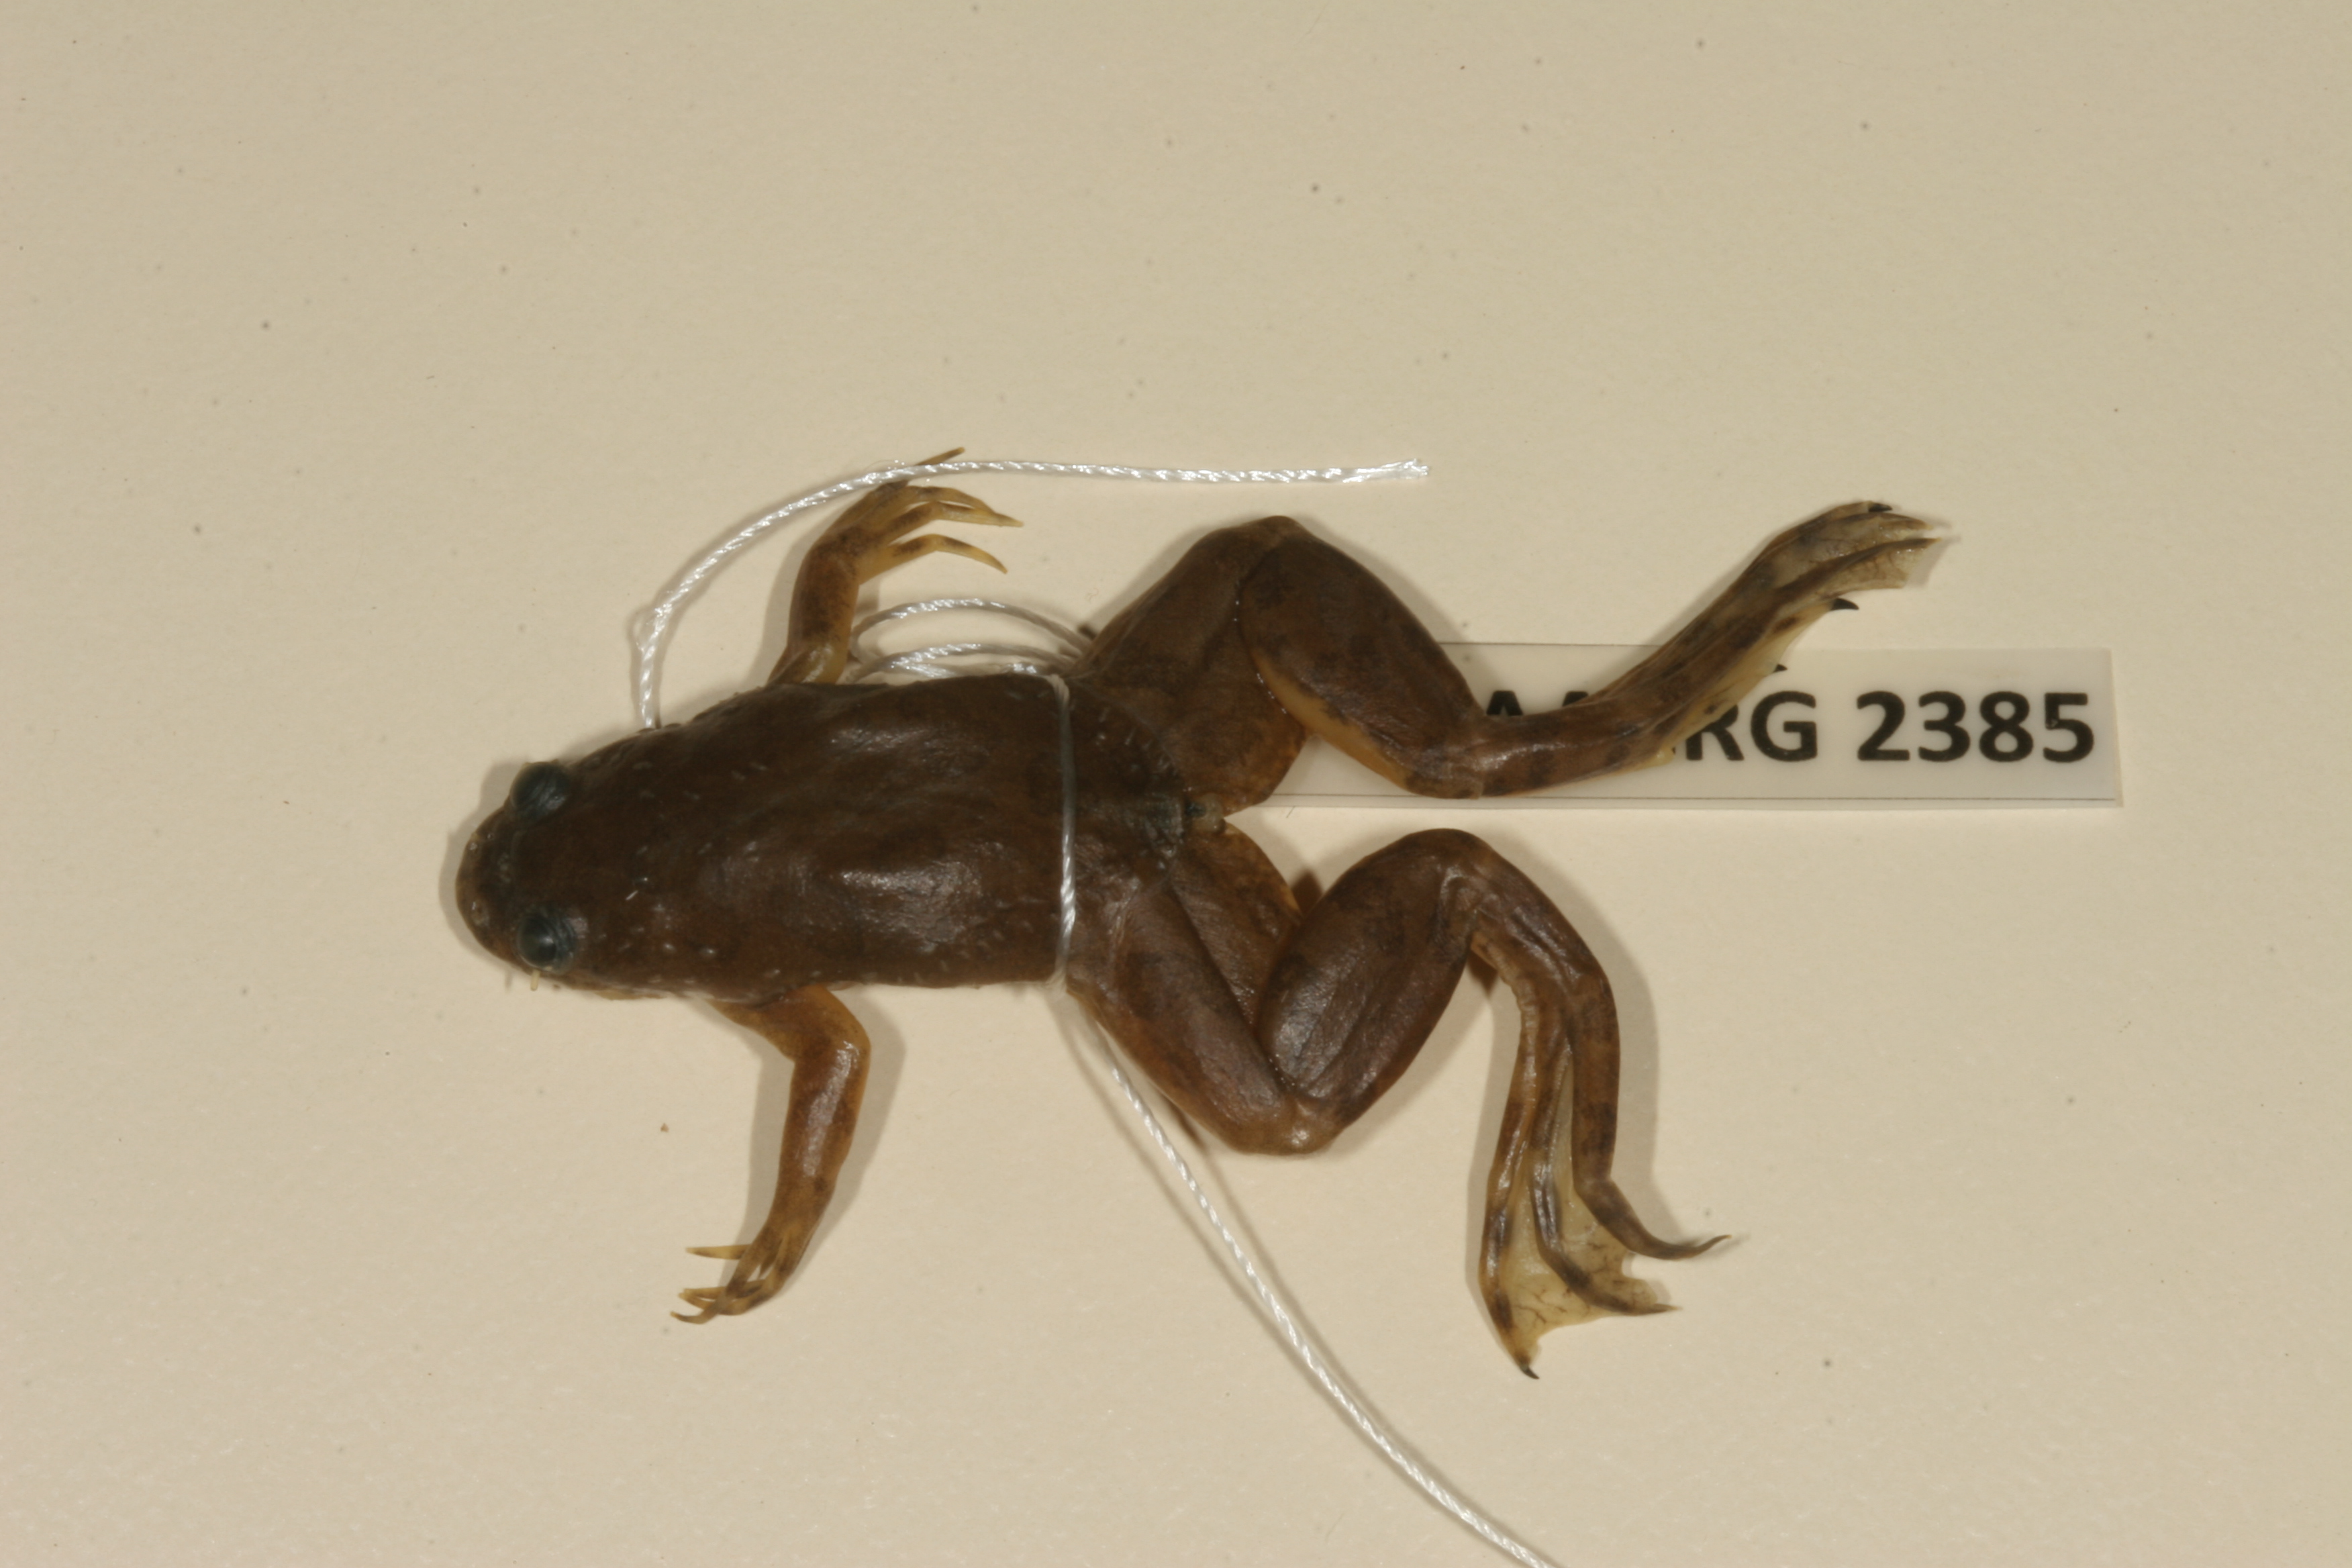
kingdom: Animalia
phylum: Chordata
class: Amphibia
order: Anura
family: Pipidae
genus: Xenopus
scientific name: Xenopus muelleri
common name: Muller's clawed frog
